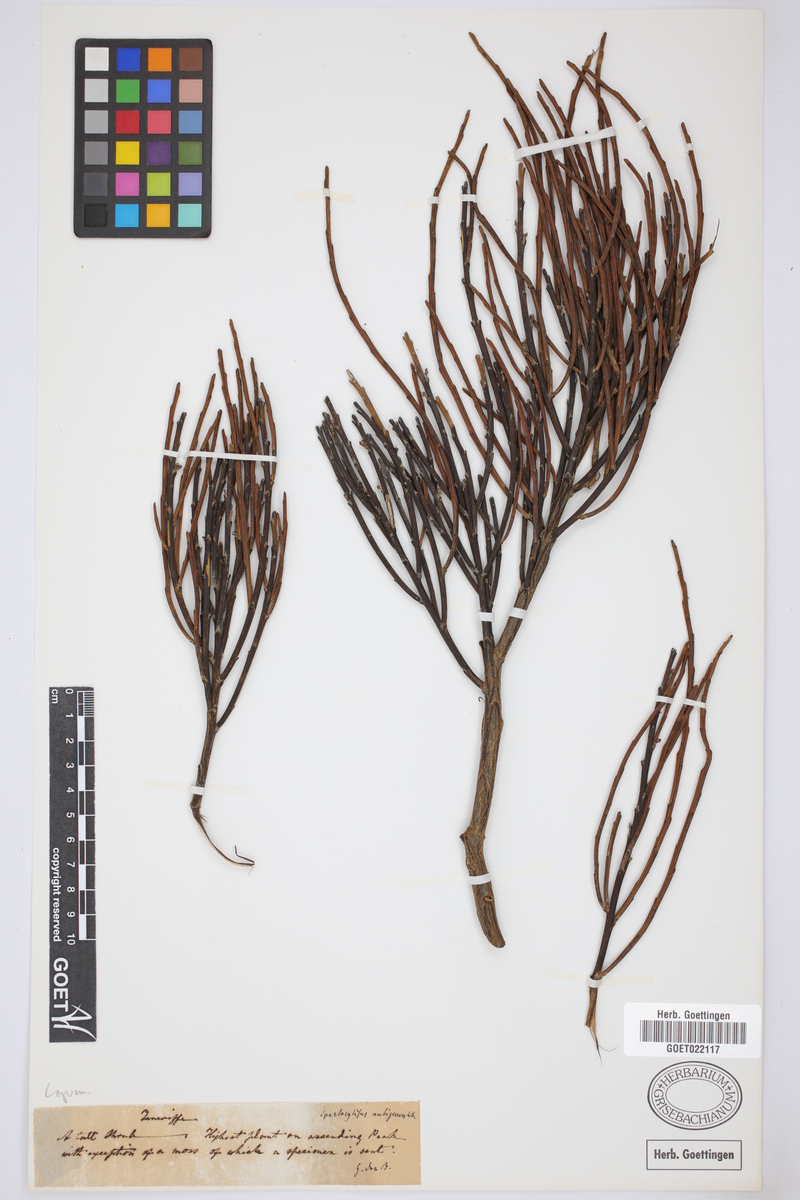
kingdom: Plantae
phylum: Tracheophyta
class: Magnoliopsida
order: Fabales
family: Fabaceae
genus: Cytisus
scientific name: Cytisus supranubius
